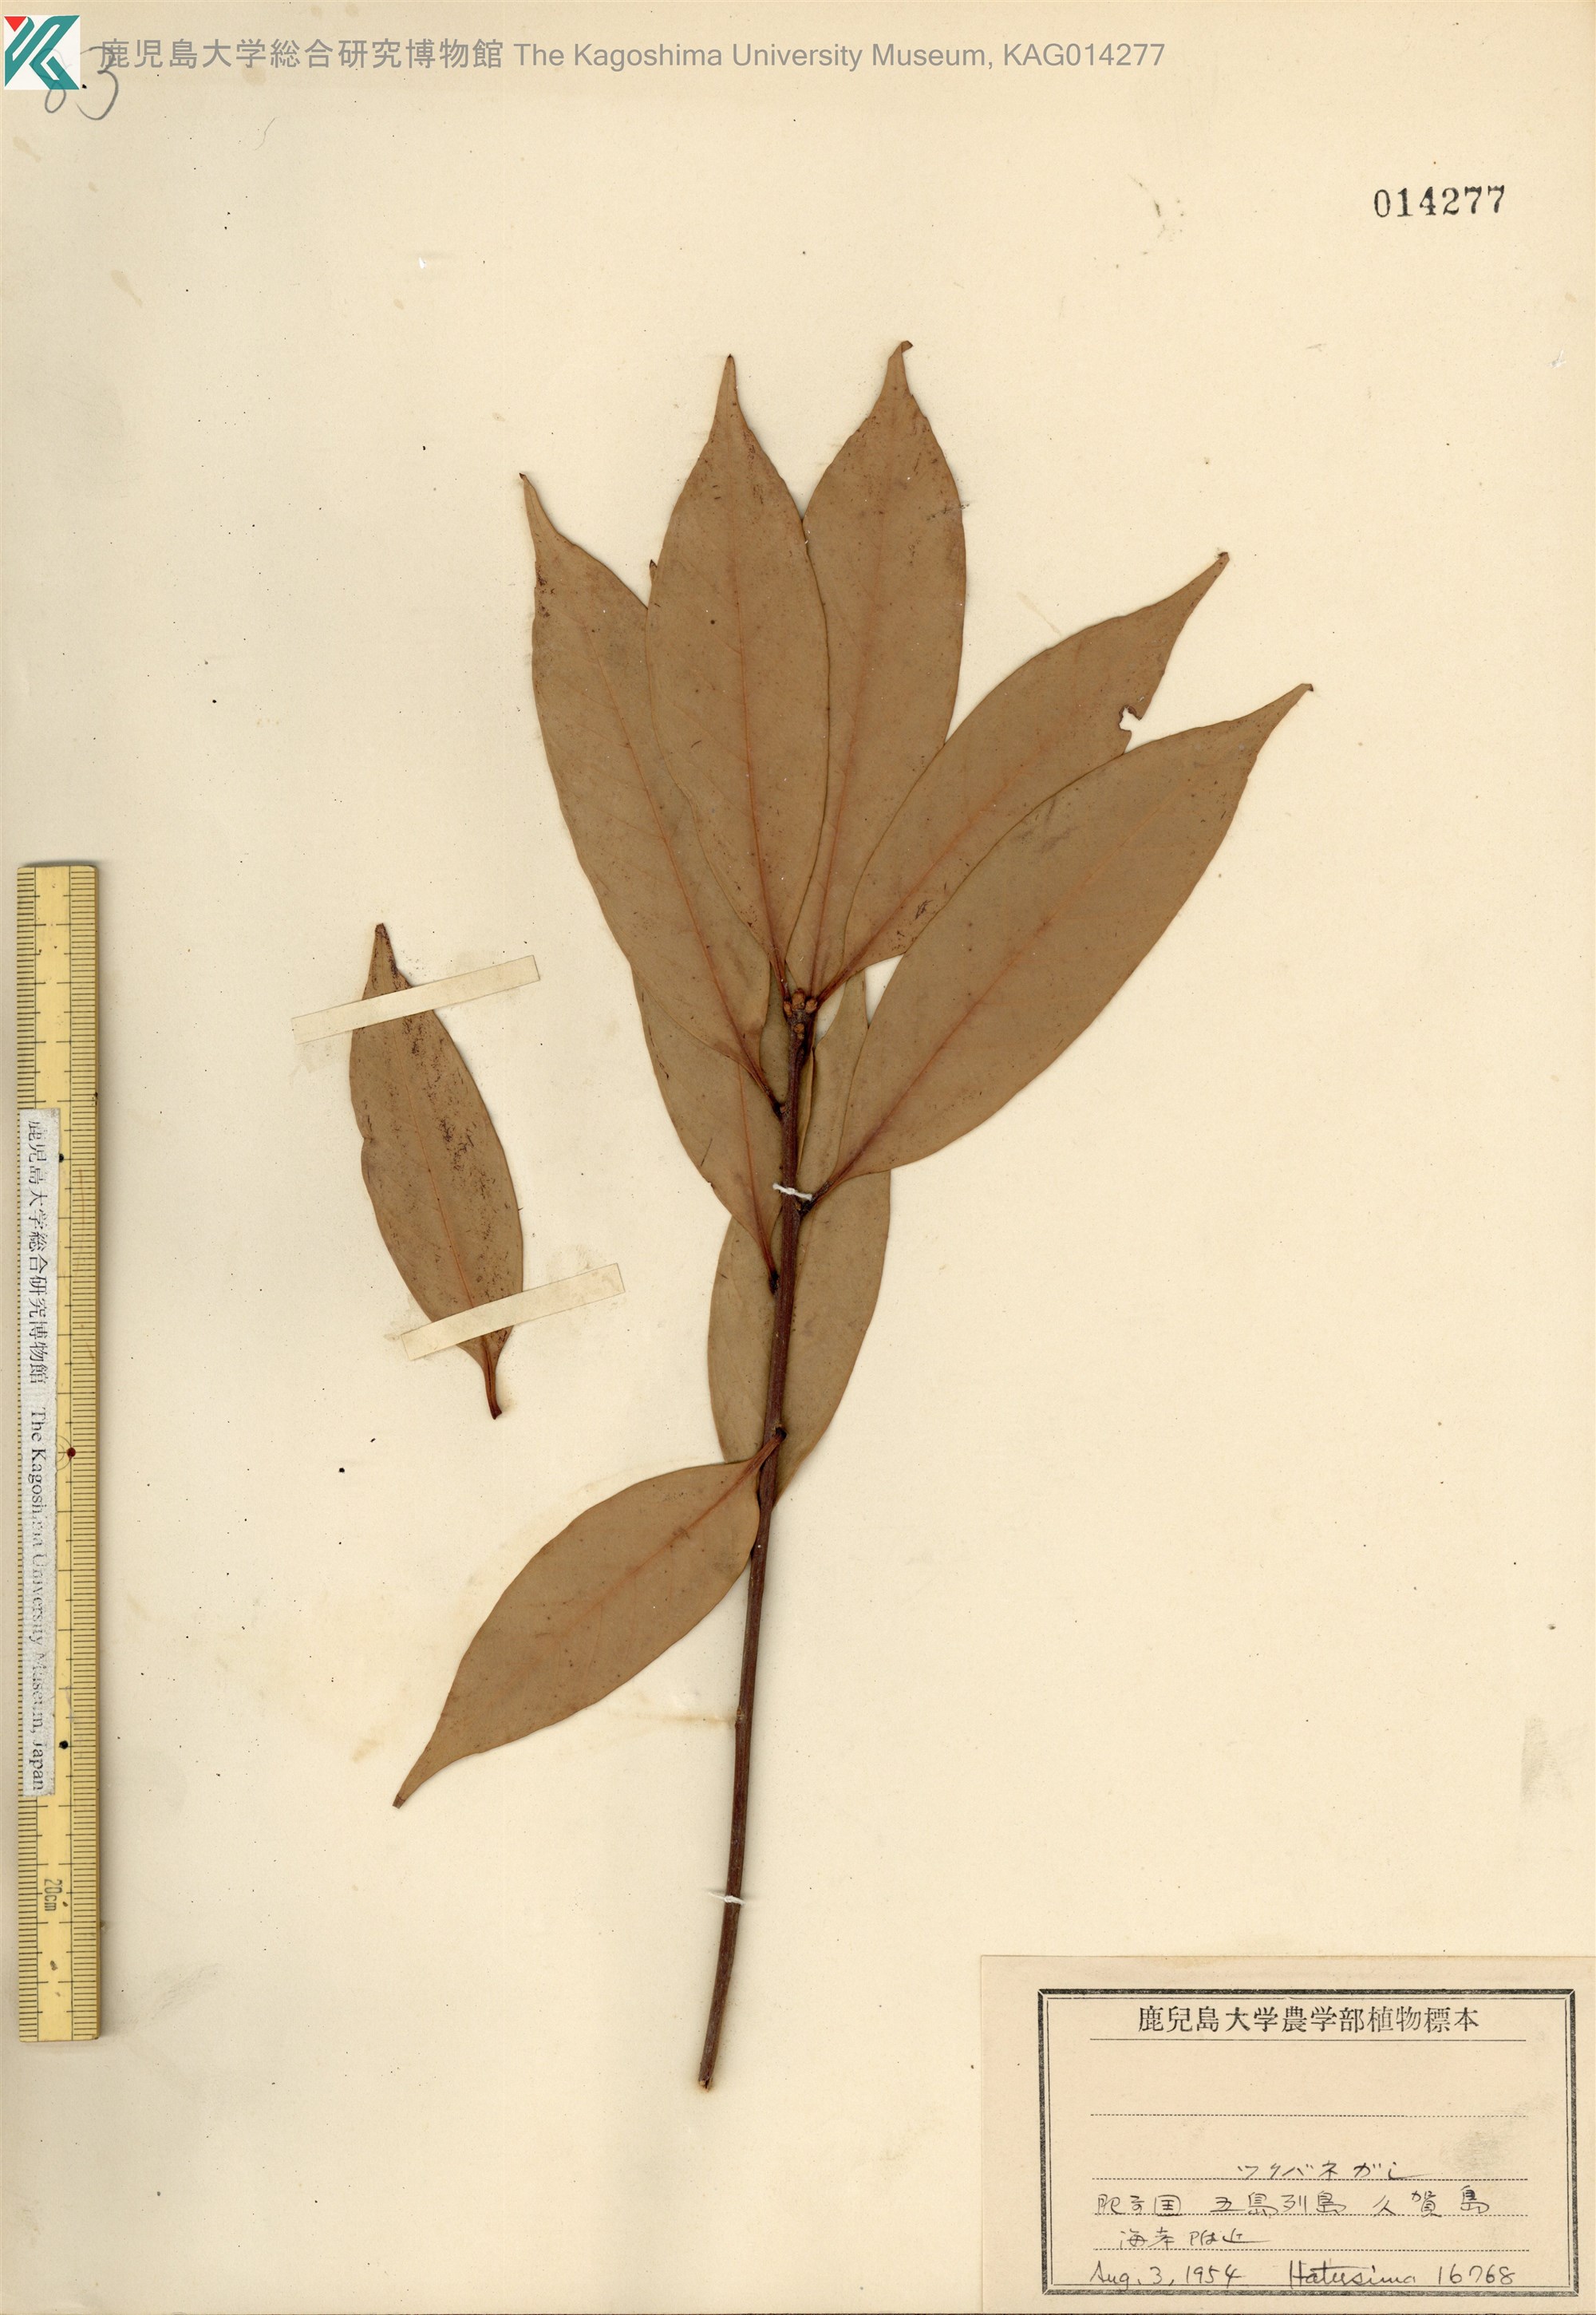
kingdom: Plantae
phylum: Tracheophyta
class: Magnoliopsida
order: Fagales
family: Fagaceae
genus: Quercus
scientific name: Quercus sessilifolia
